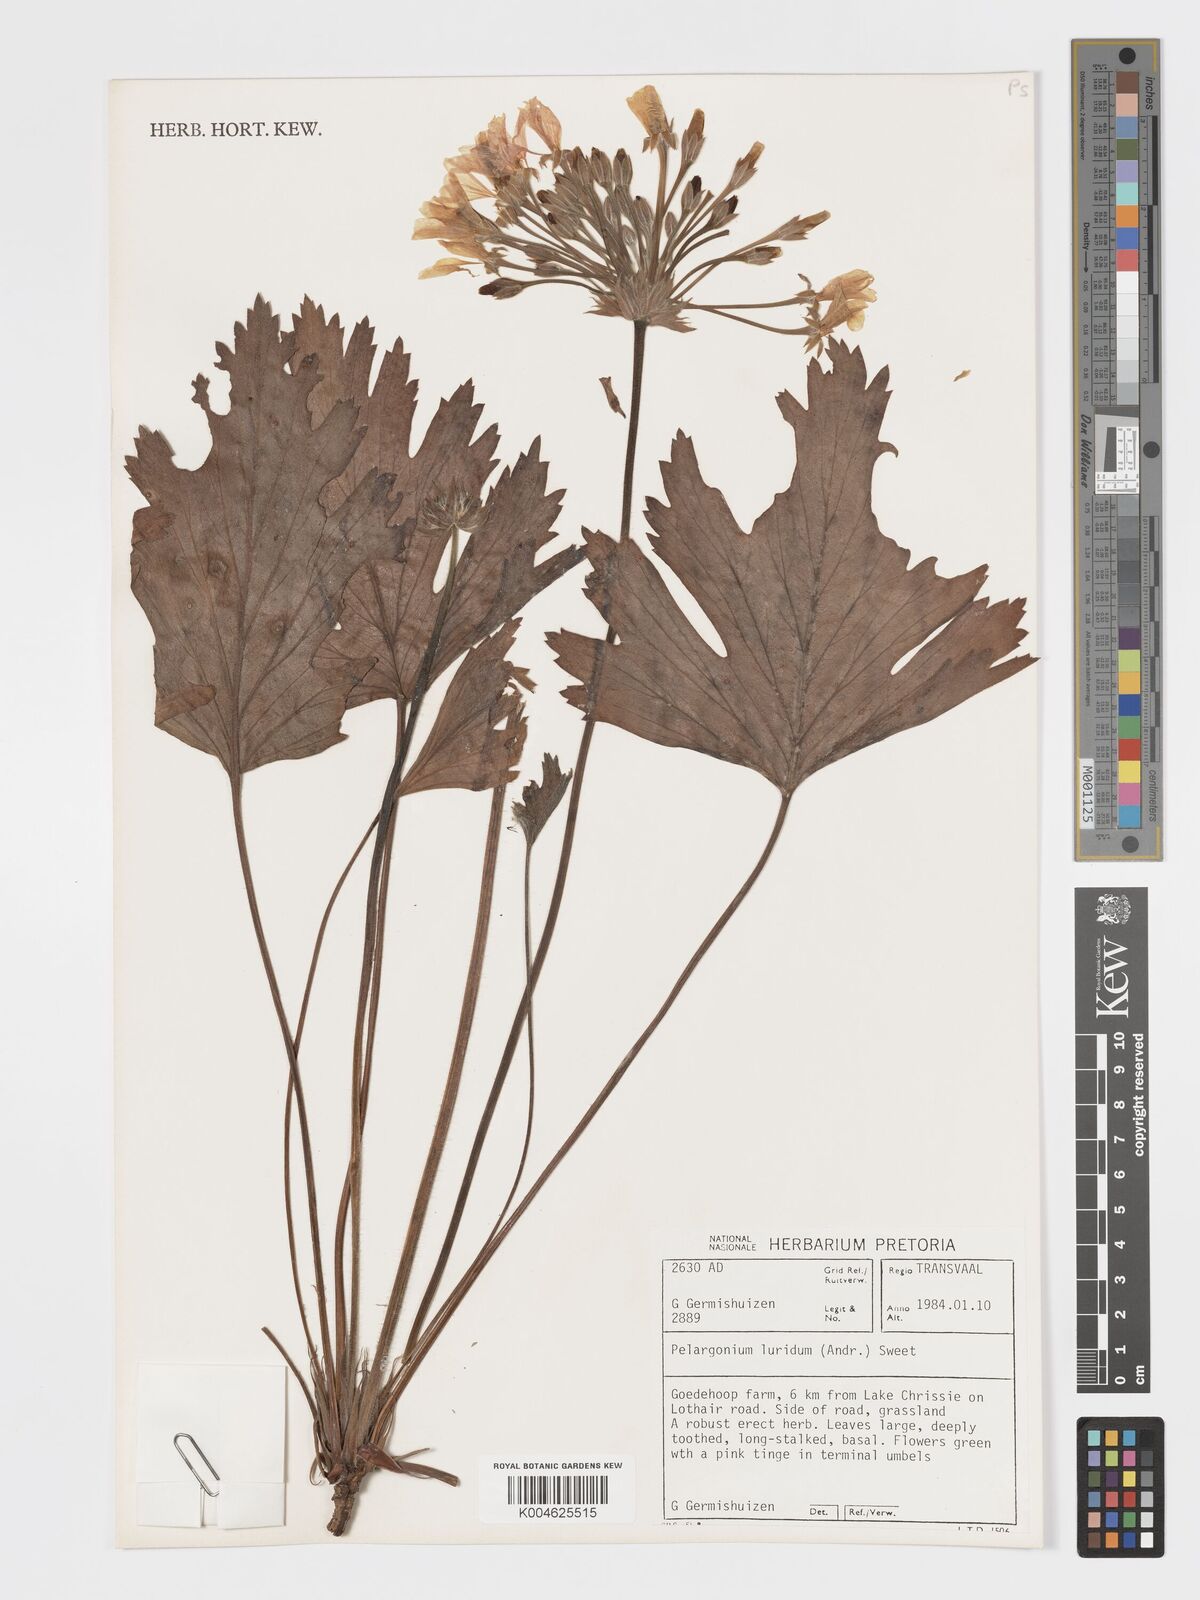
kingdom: Plantae
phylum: Tracheophyta
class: Magnoliopsida
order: Geraniales
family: Geraniaceae
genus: Pelargonium
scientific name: Pelargonium luridum
